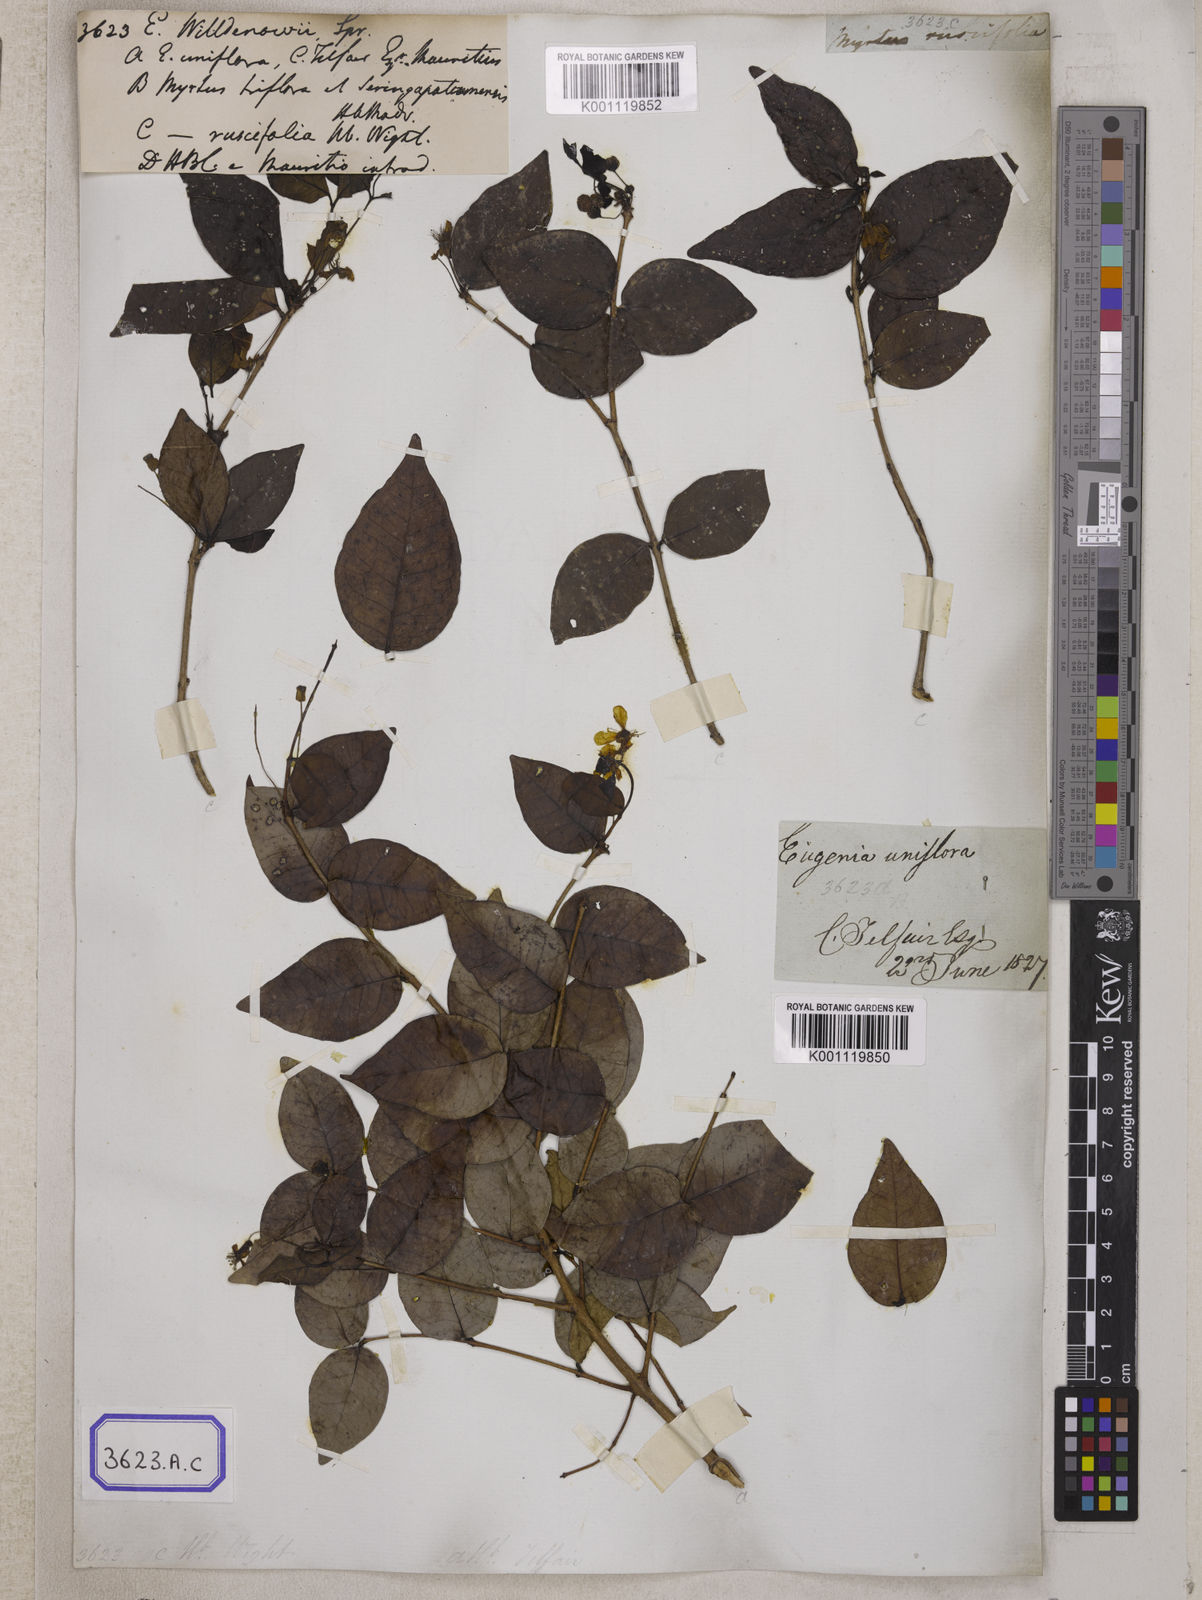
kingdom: Plantae
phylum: Tracheophyta
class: Magnoliopsida
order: Myrtales
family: Myrtaceae
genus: Eugenia
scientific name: Eugenia uniflora
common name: Surinam cherry
